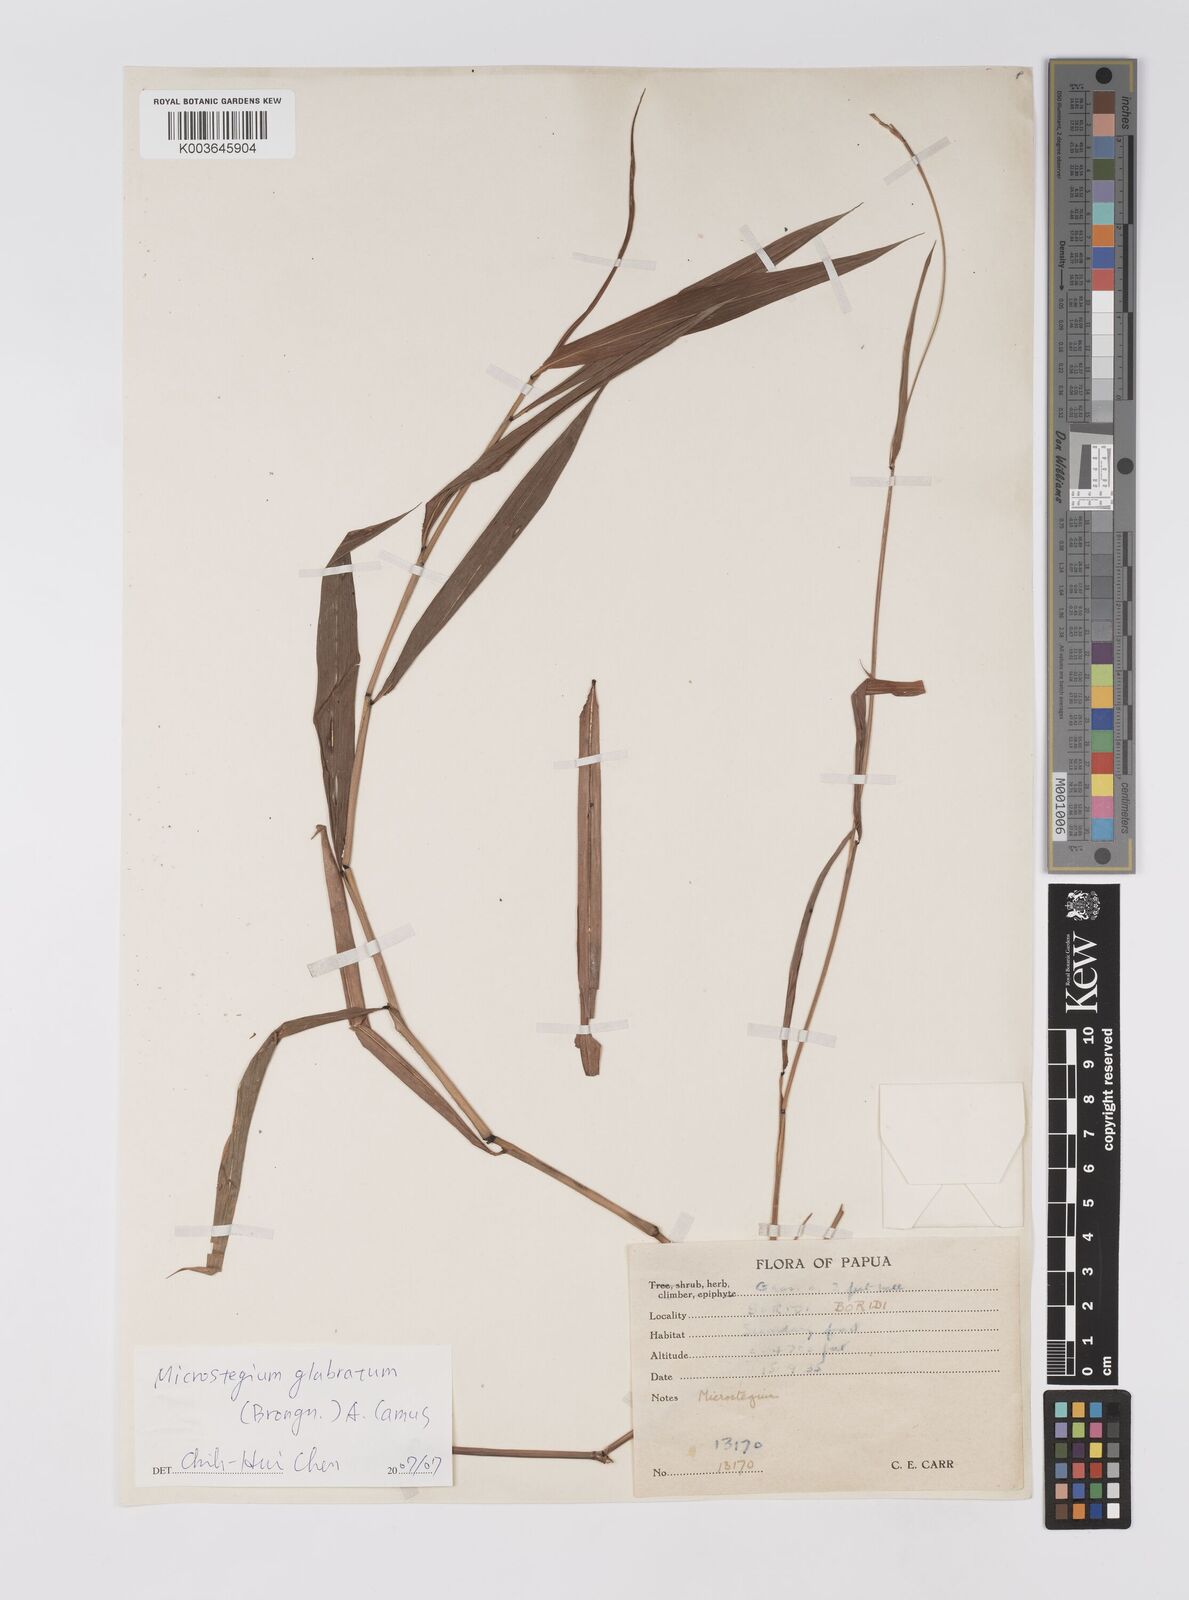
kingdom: Plantae
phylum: Tracheophyta
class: Liliopsida
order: Poales
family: Poaceae
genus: Microstegium
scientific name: Microstegium glabratum
